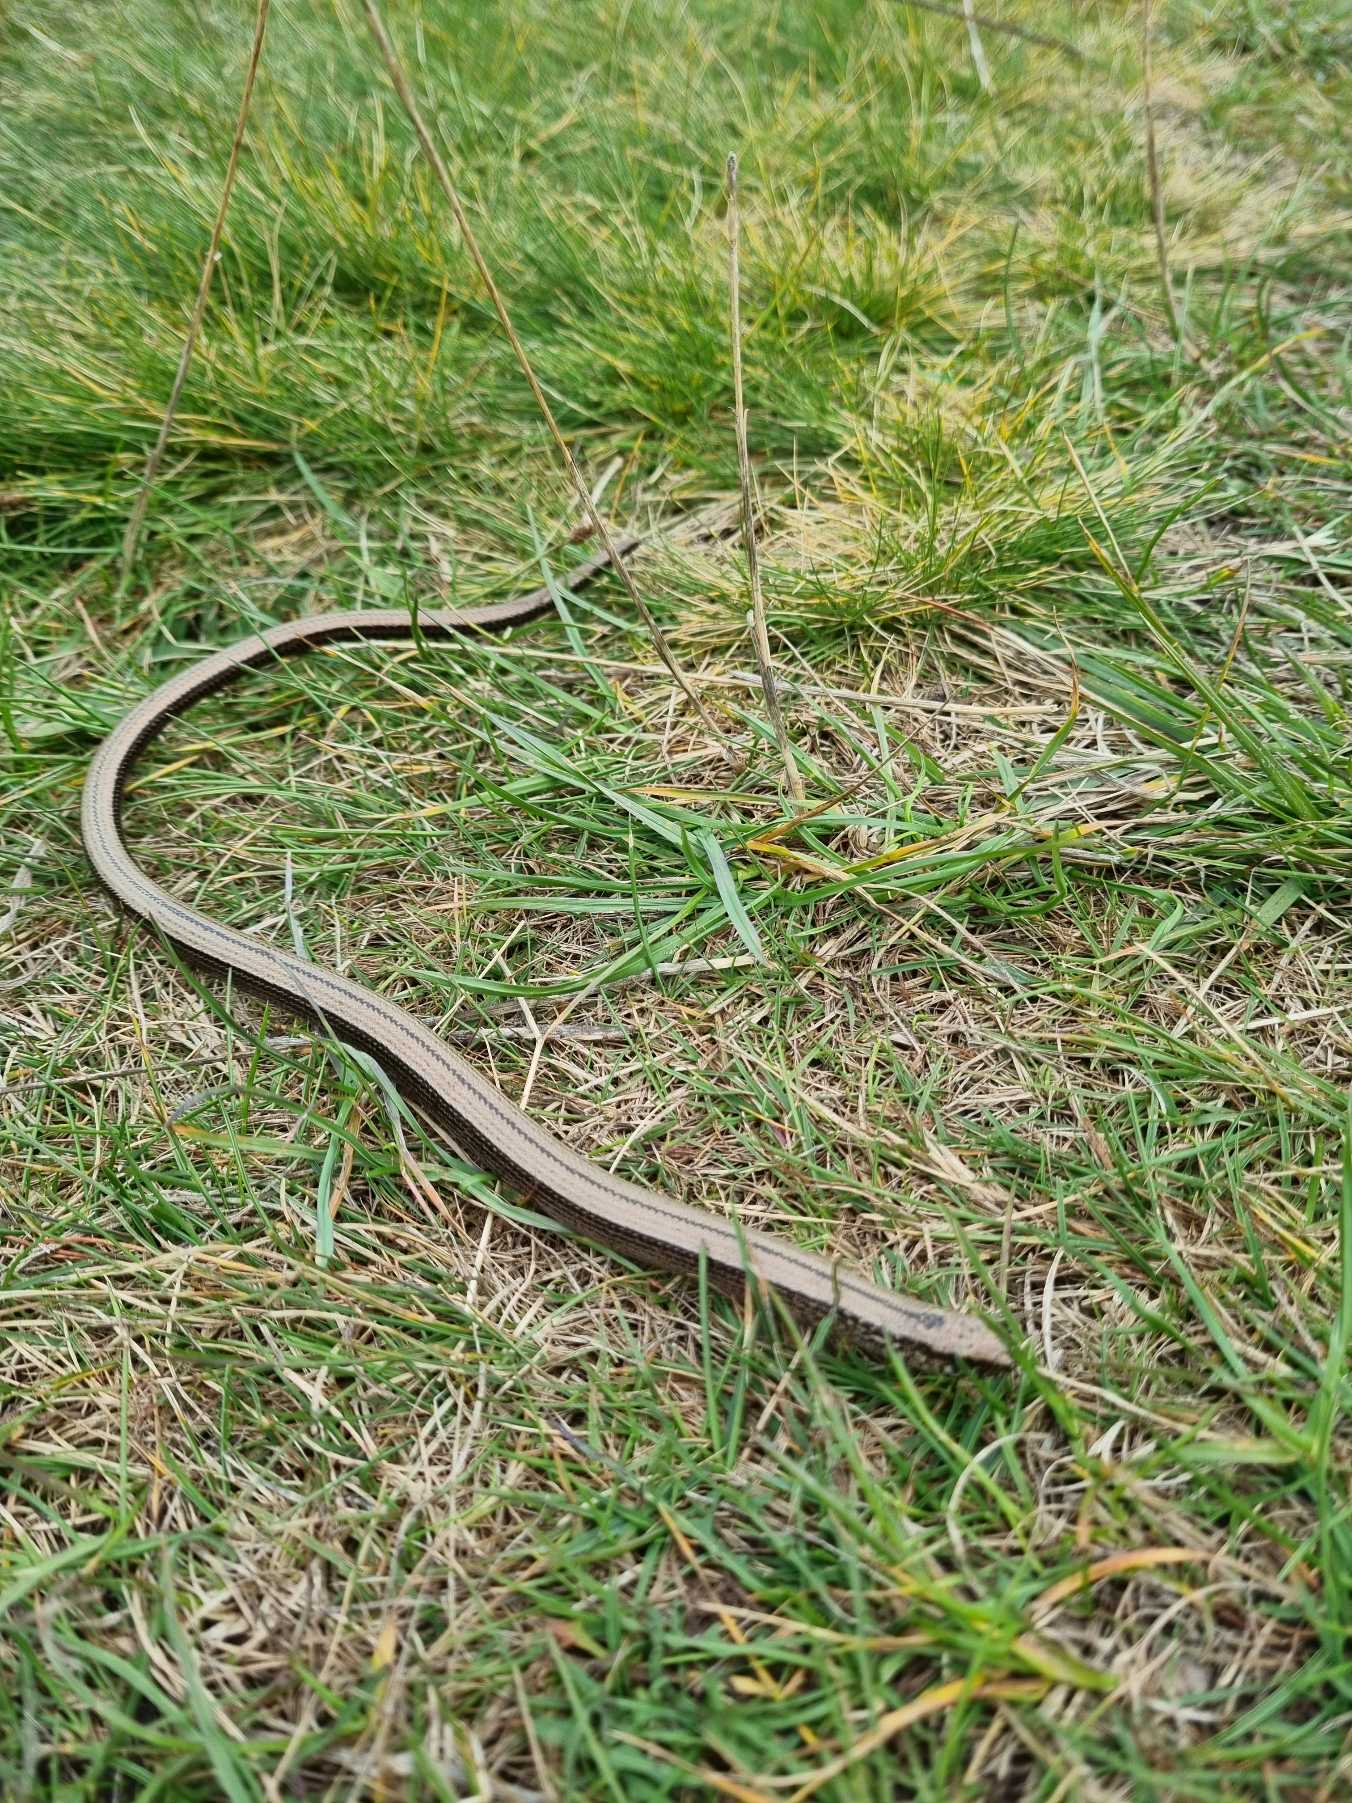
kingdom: Animalia
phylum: Chordata
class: Squamata
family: Anguidae
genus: Anguis
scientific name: Anguis fragilis
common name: Stålorm
